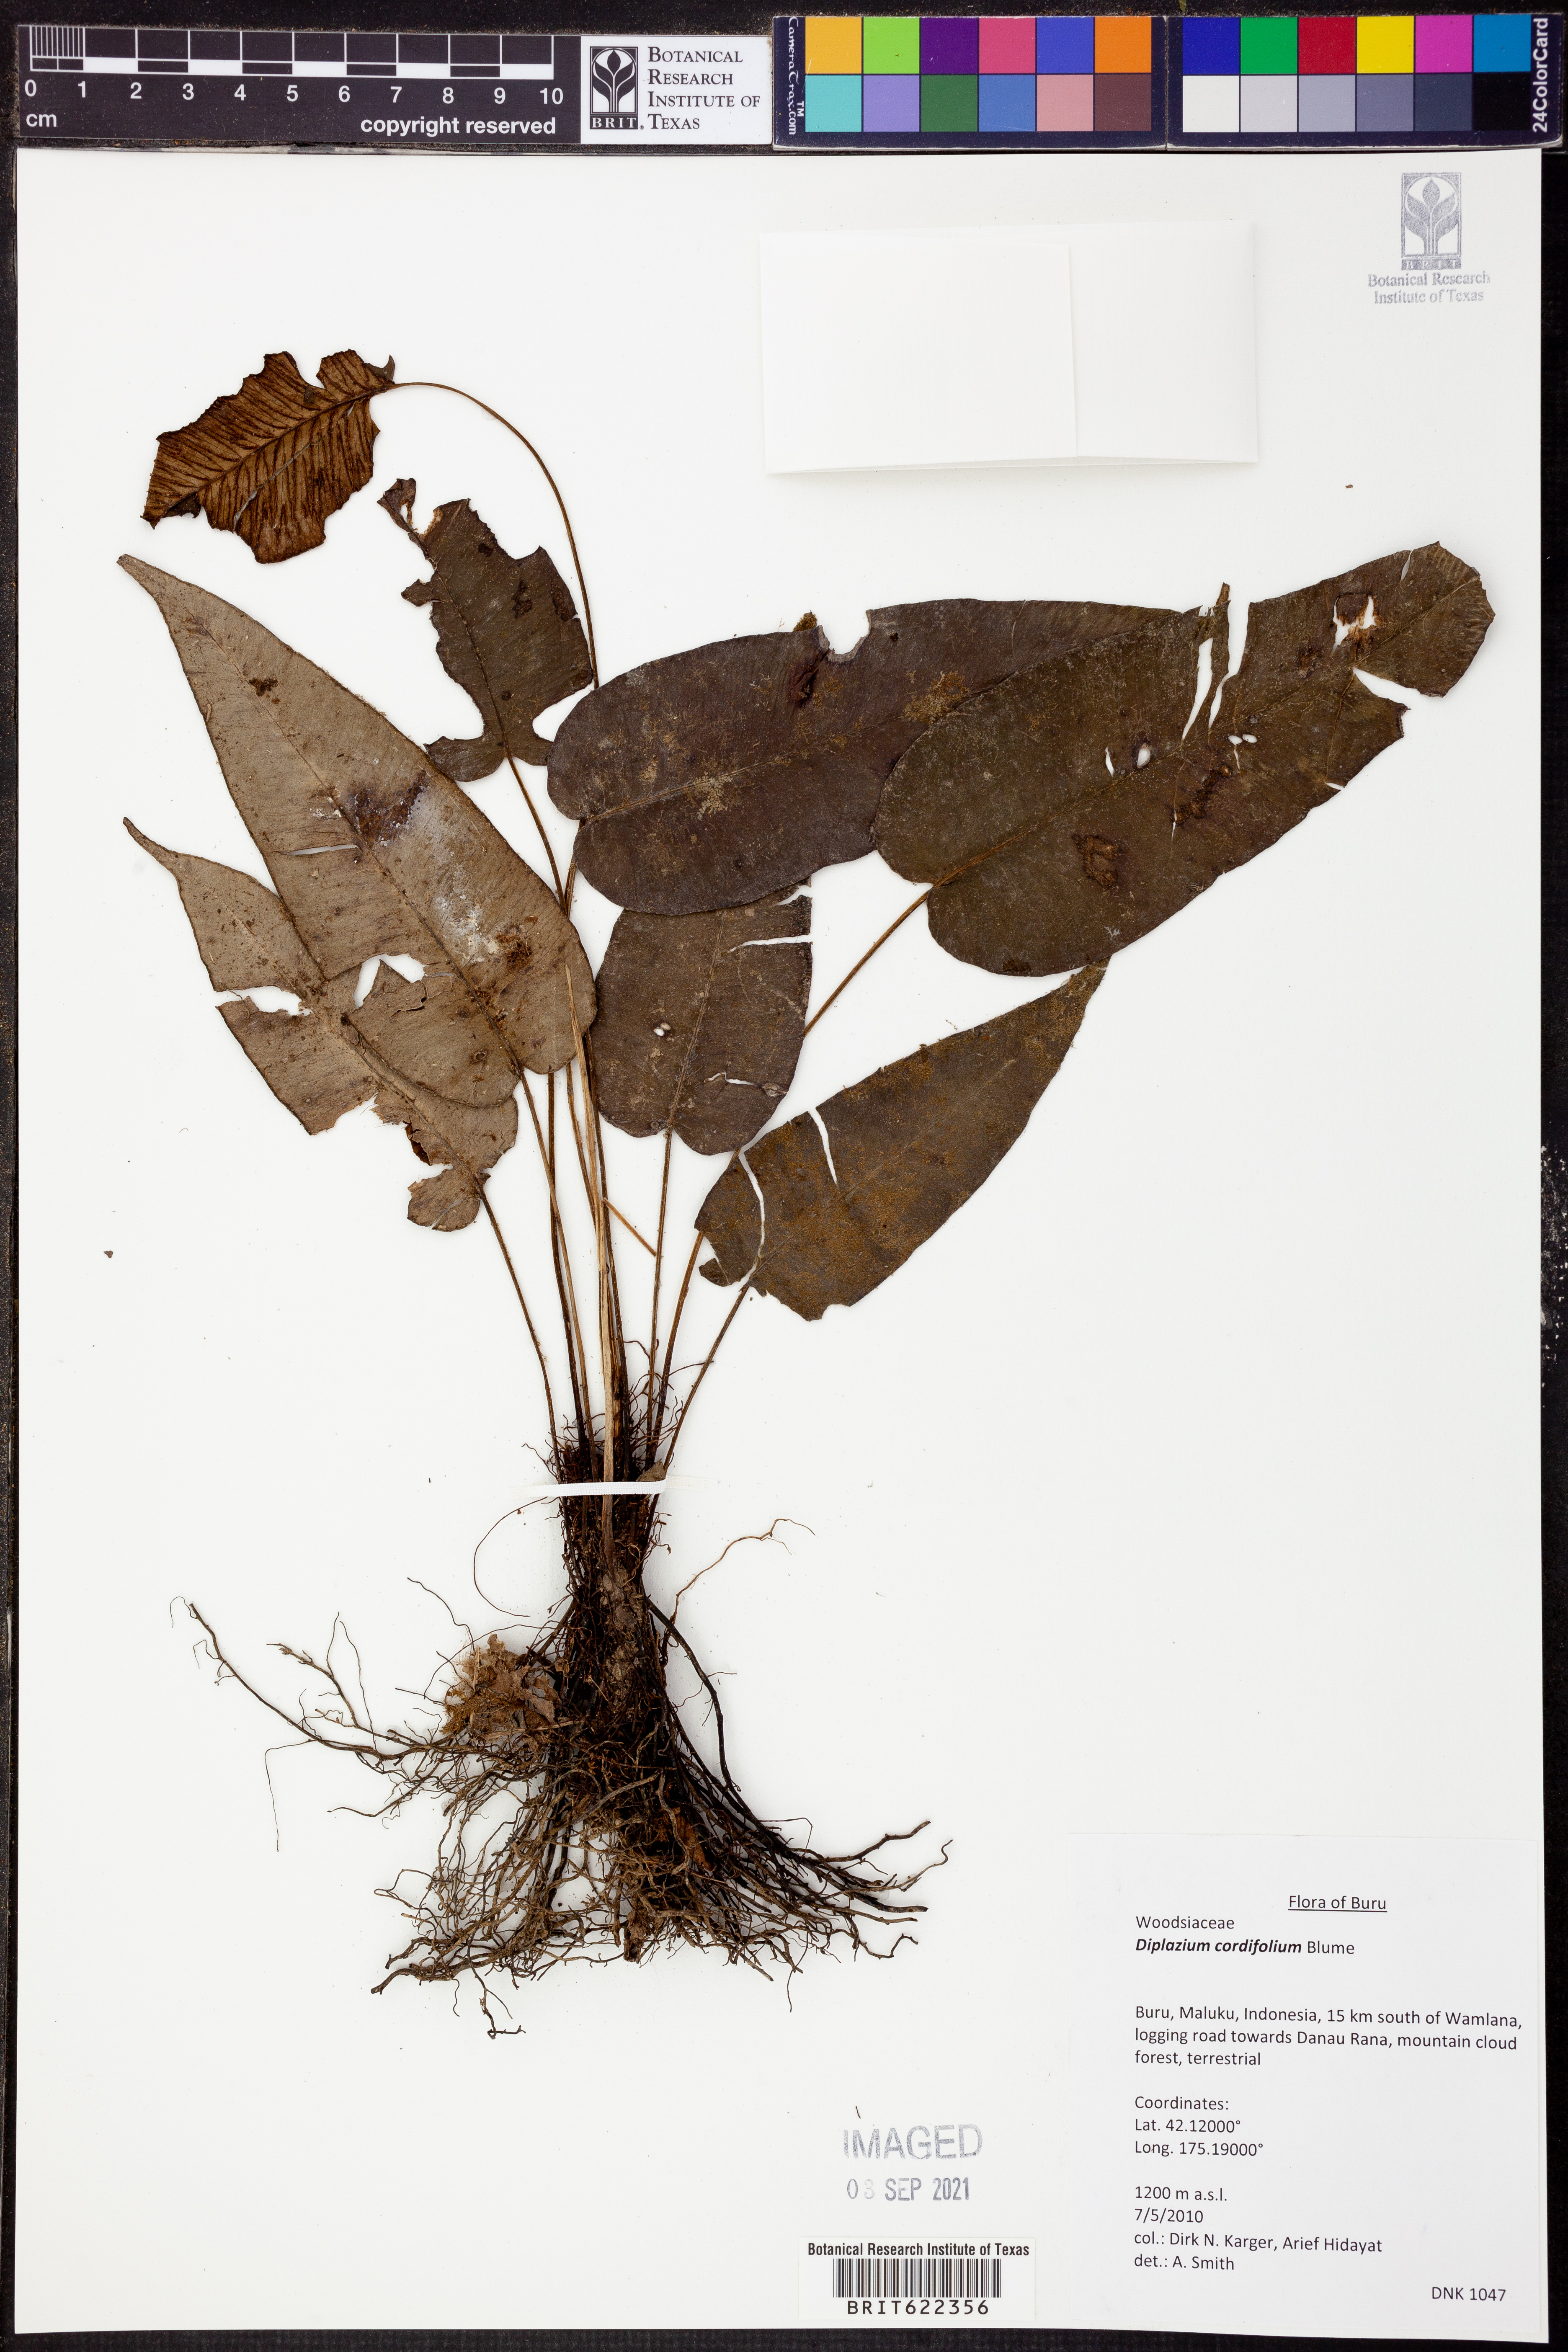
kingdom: Plantae
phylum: Tracheophyta
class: Polypodiopsida
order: Polypodiales
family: Athyriaceae
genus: Diplazium
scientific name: Diplazium cordifolium
